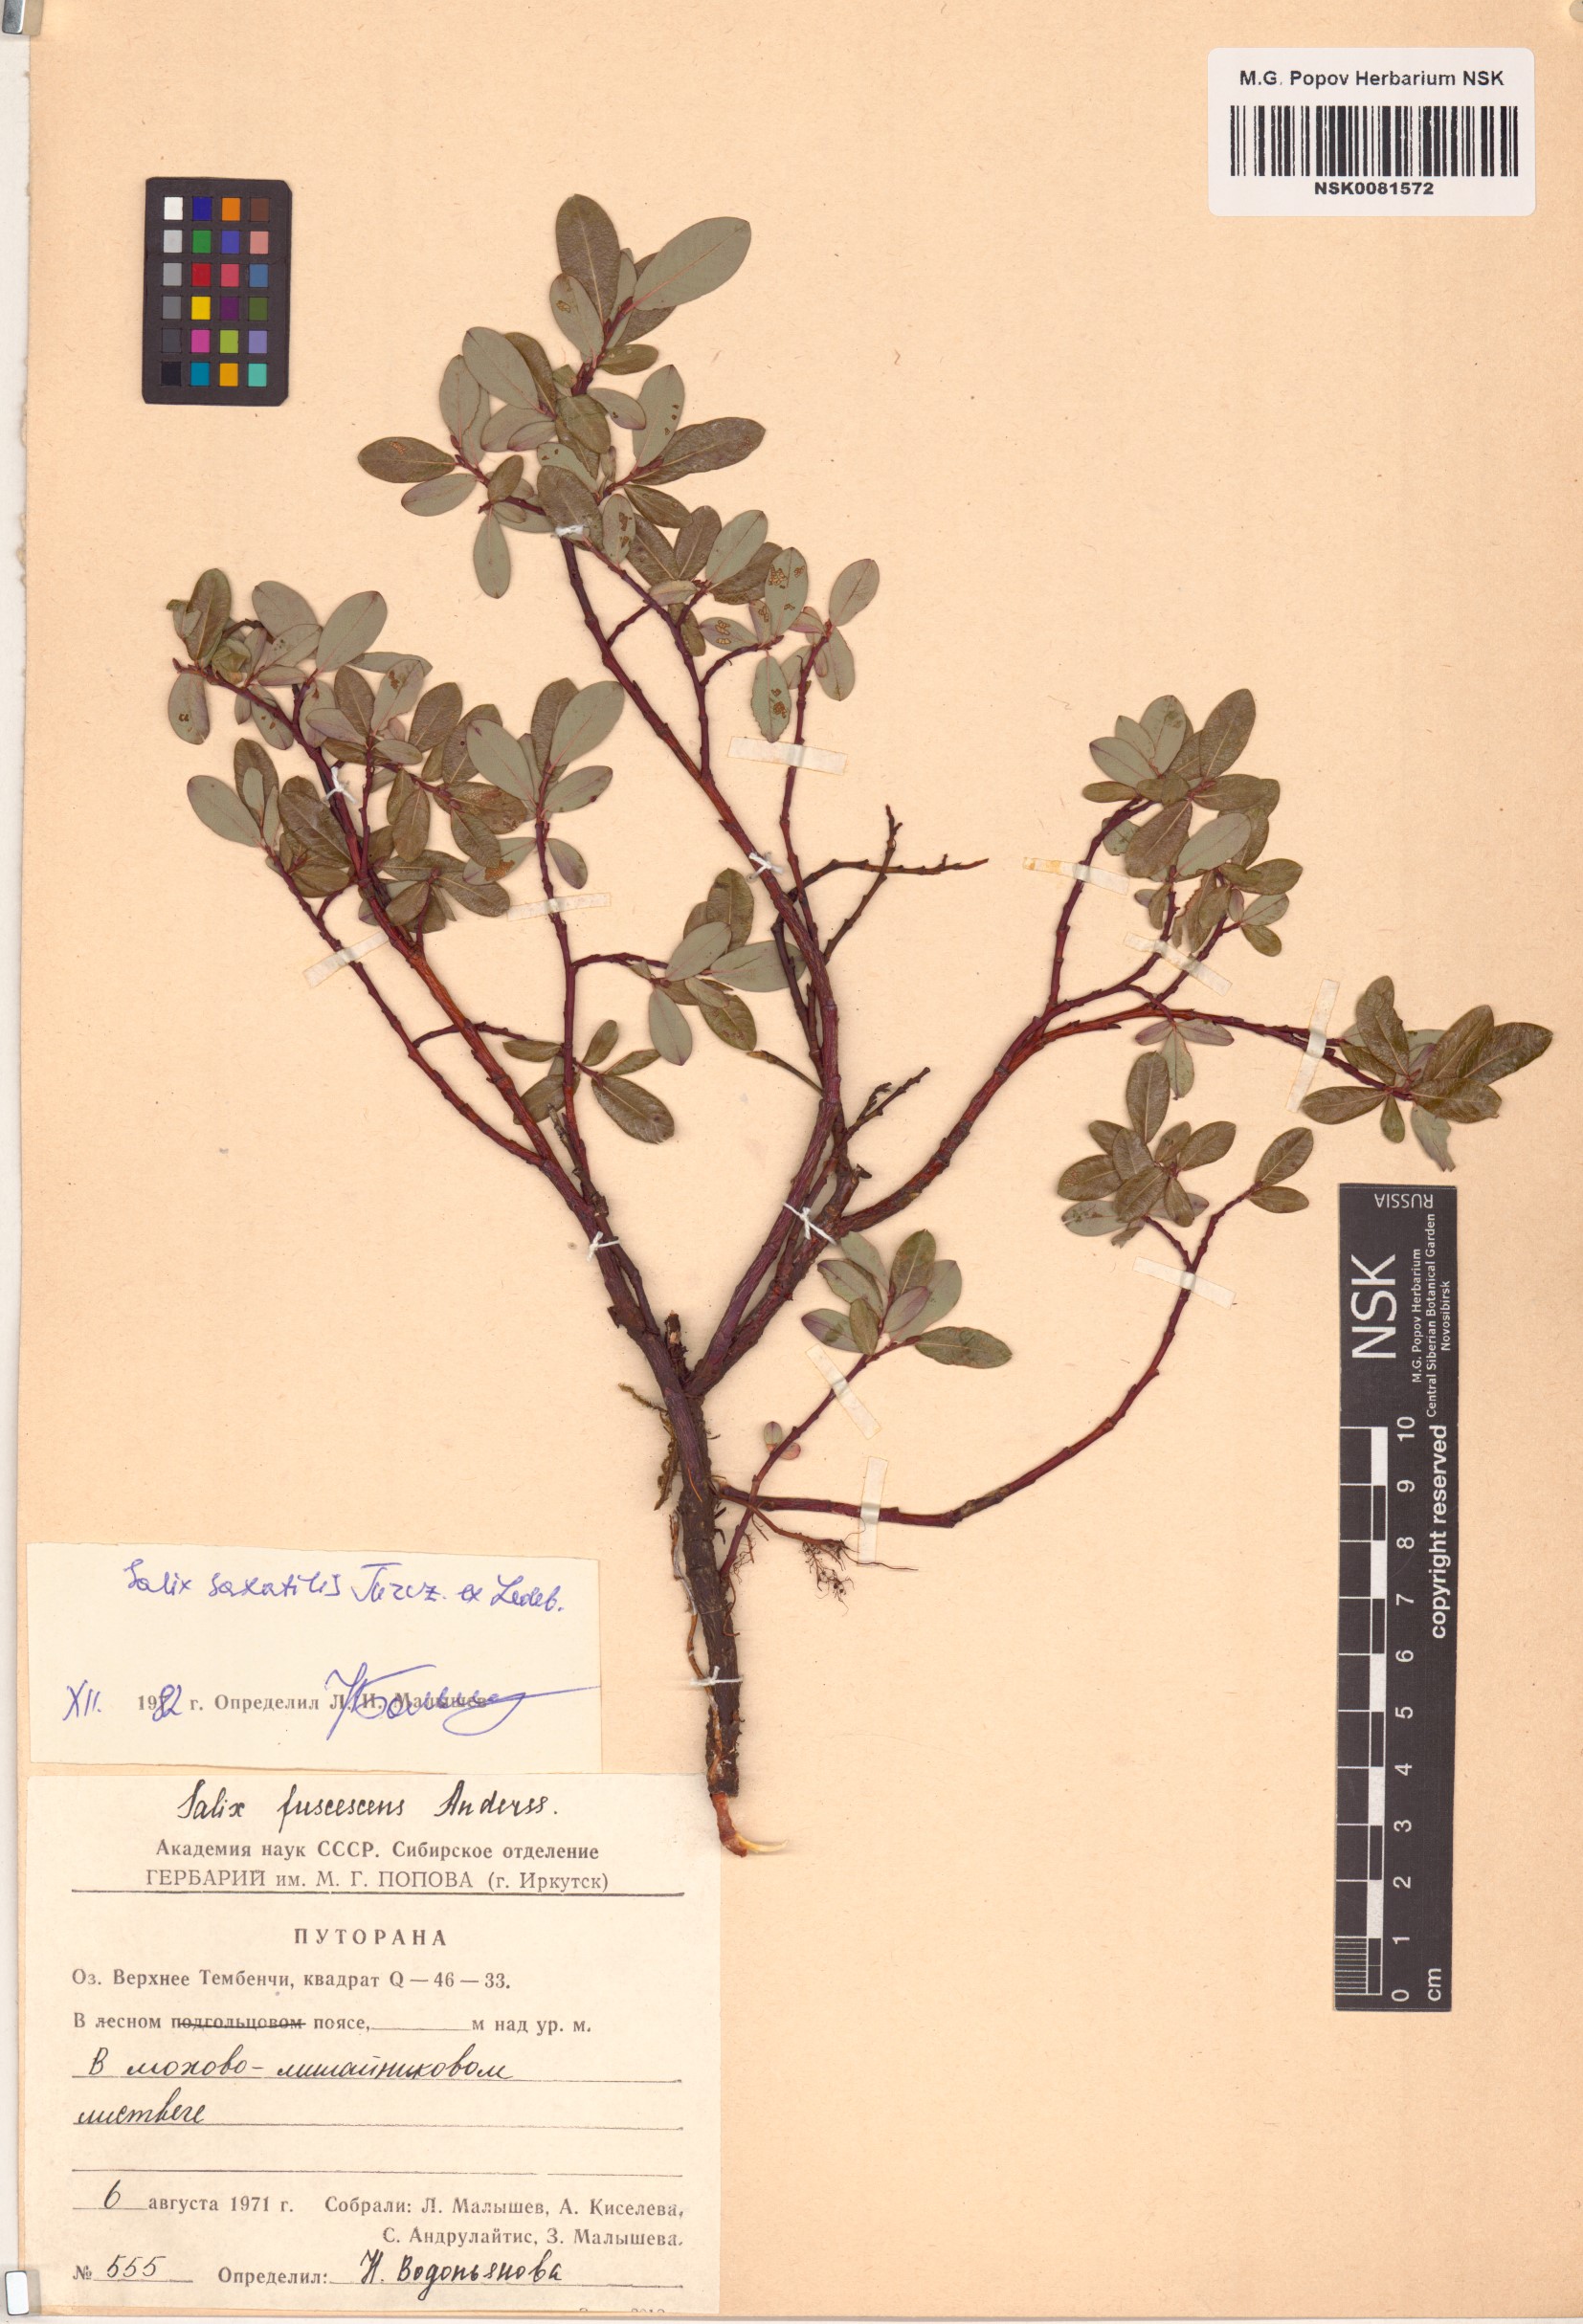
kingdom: Plantae
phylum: Tracheophyta
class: Magnoliopsida
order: Malpighiales
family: Salicaceae
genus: Salix
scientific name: Salix saxatilis
